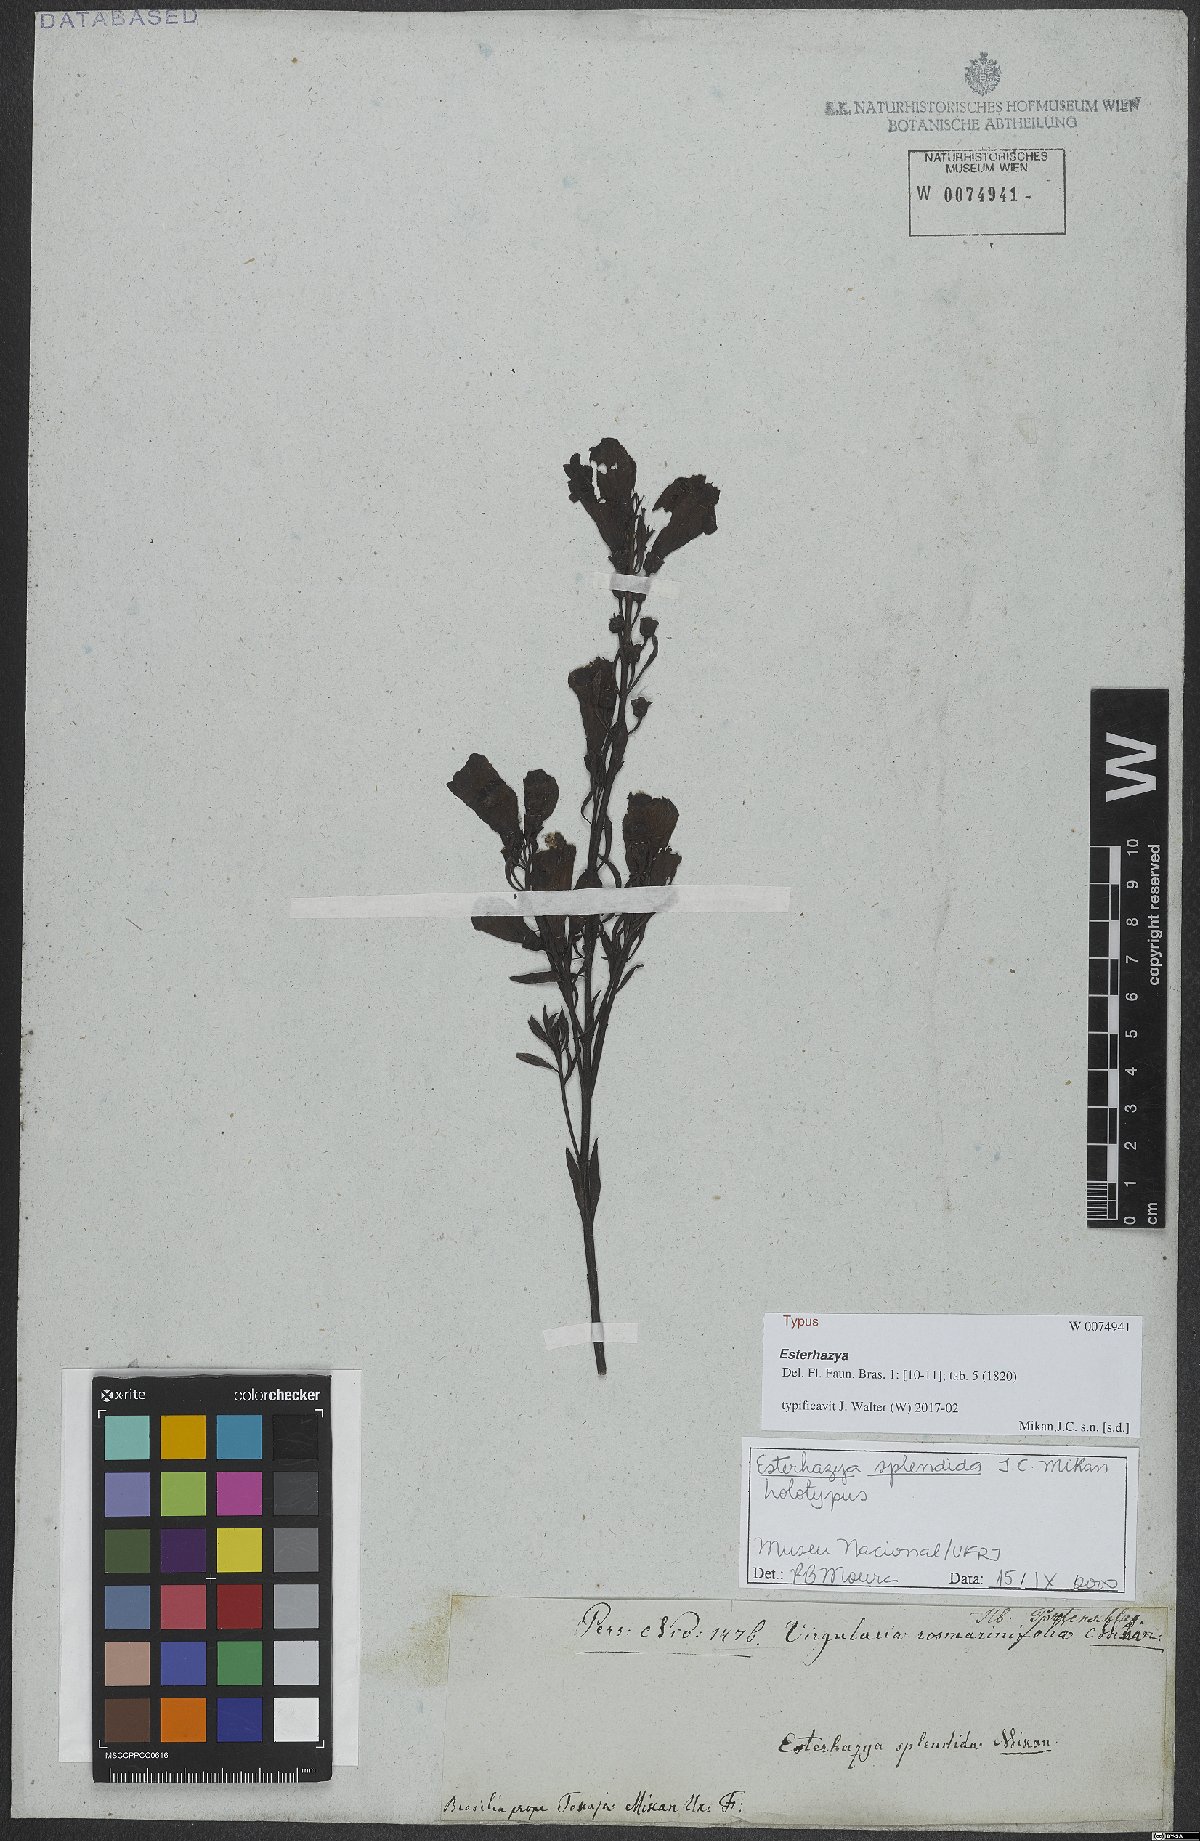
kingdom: Plantae
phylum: Tracheophyta
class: Magnoliopsida
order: Lamiales
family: Orobanchaceae
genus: Esterhazya
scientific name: Esterhazya splendida
